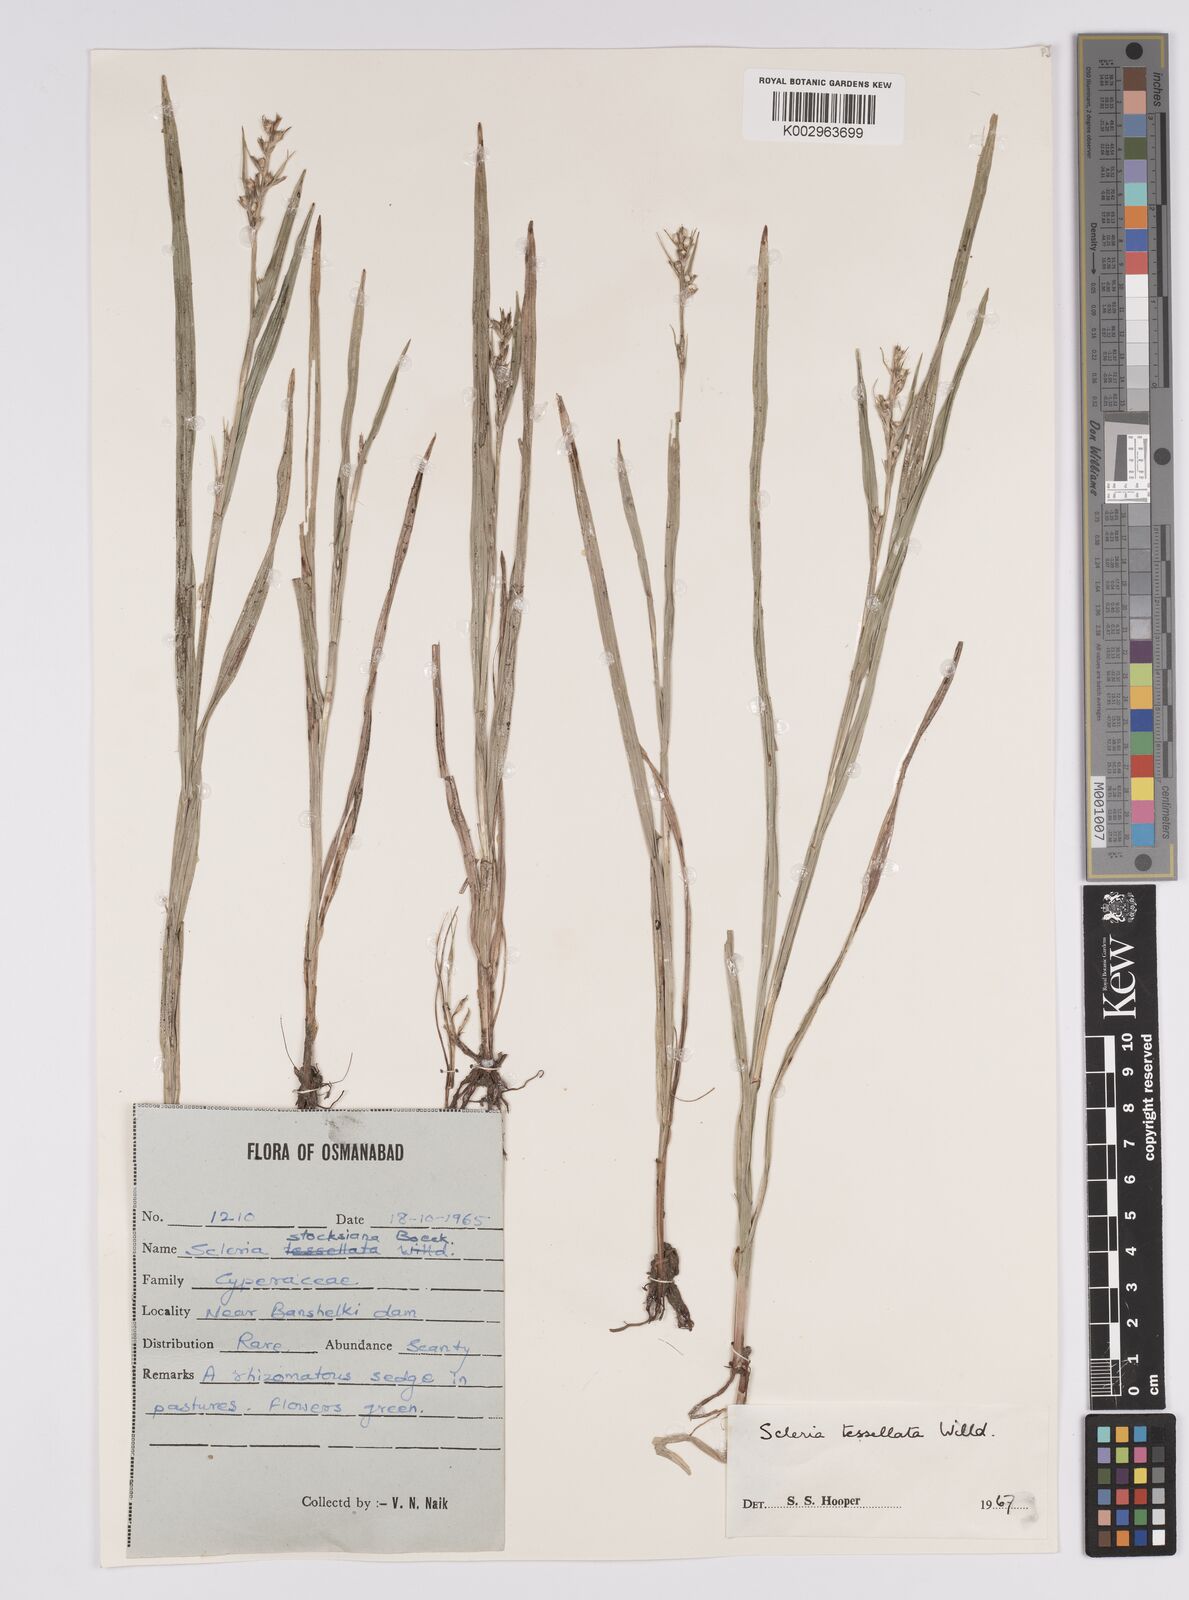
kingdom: Plantae
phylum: Tracheophyta
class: Liliopsida
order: Poales
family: Cyperaceae
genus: Scleria
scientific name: Scleria foliosa
